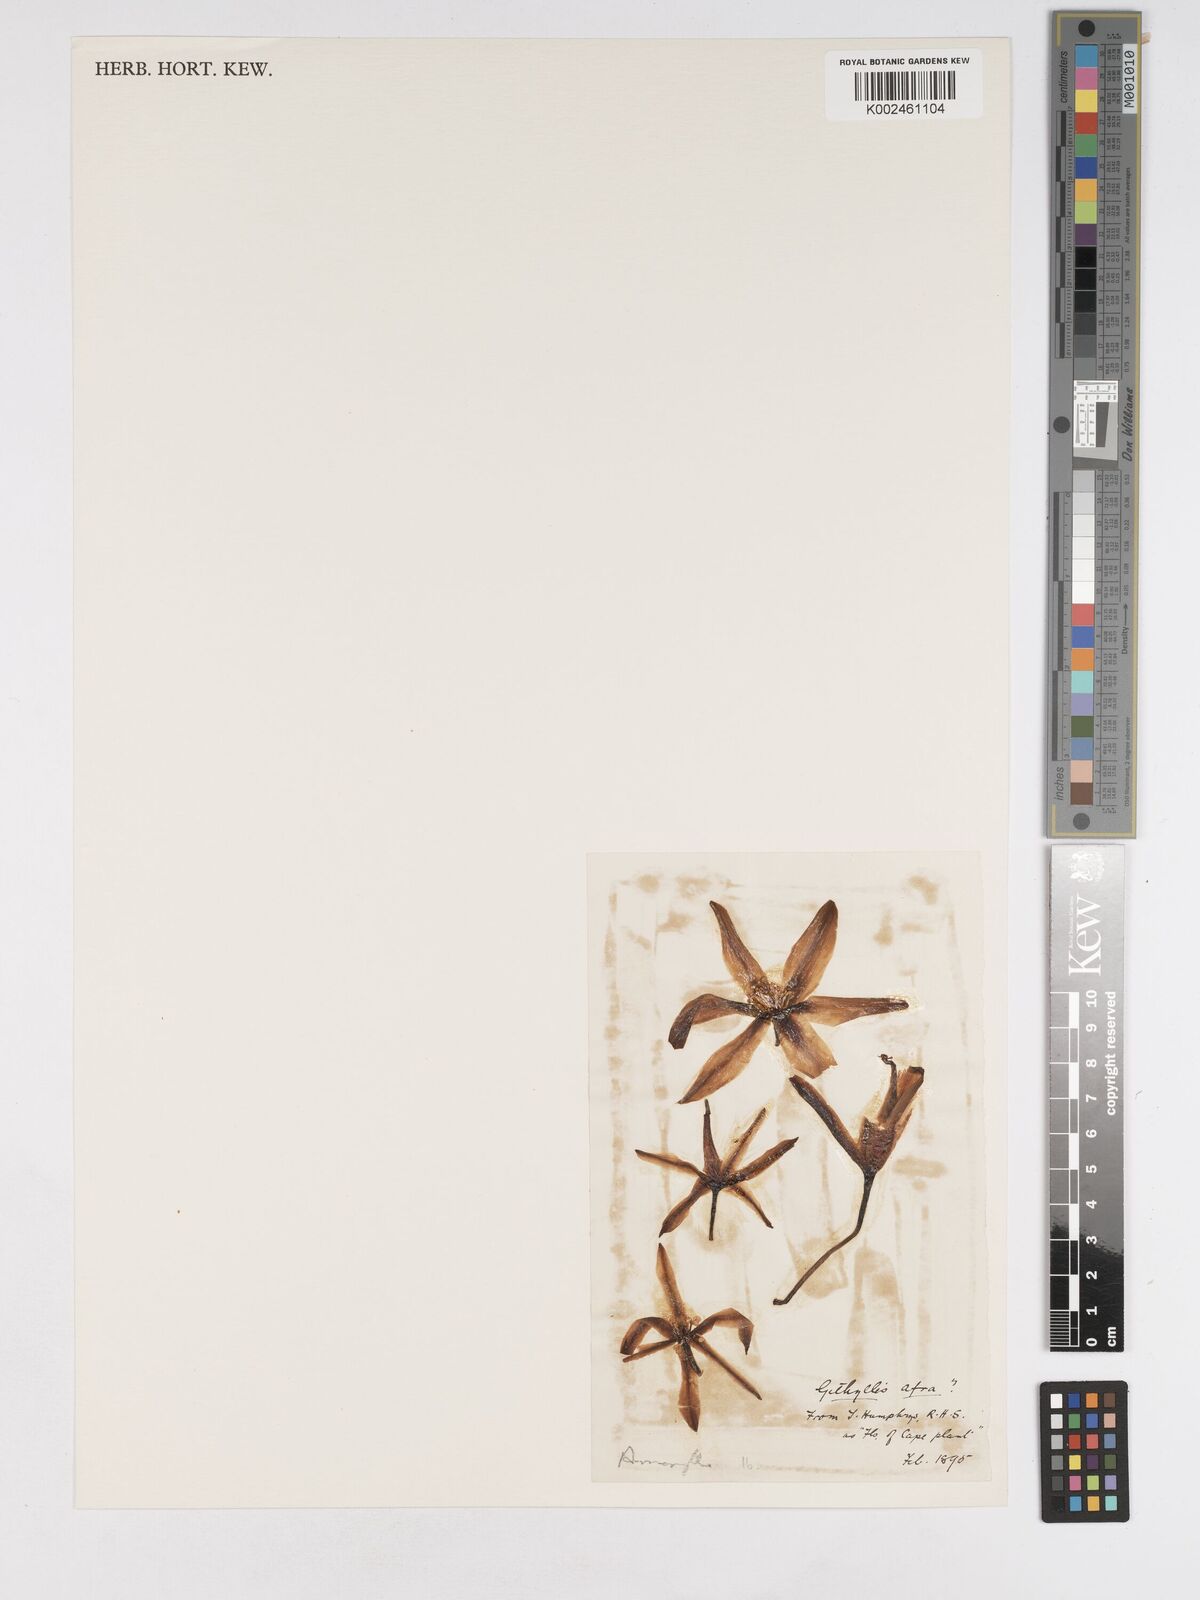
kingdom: Plantae
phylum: Tracheophyta
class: Liliopsida
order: Asparagales
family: Amaryllidaceae
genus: Gethyllis
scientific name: Gethyllis afra
